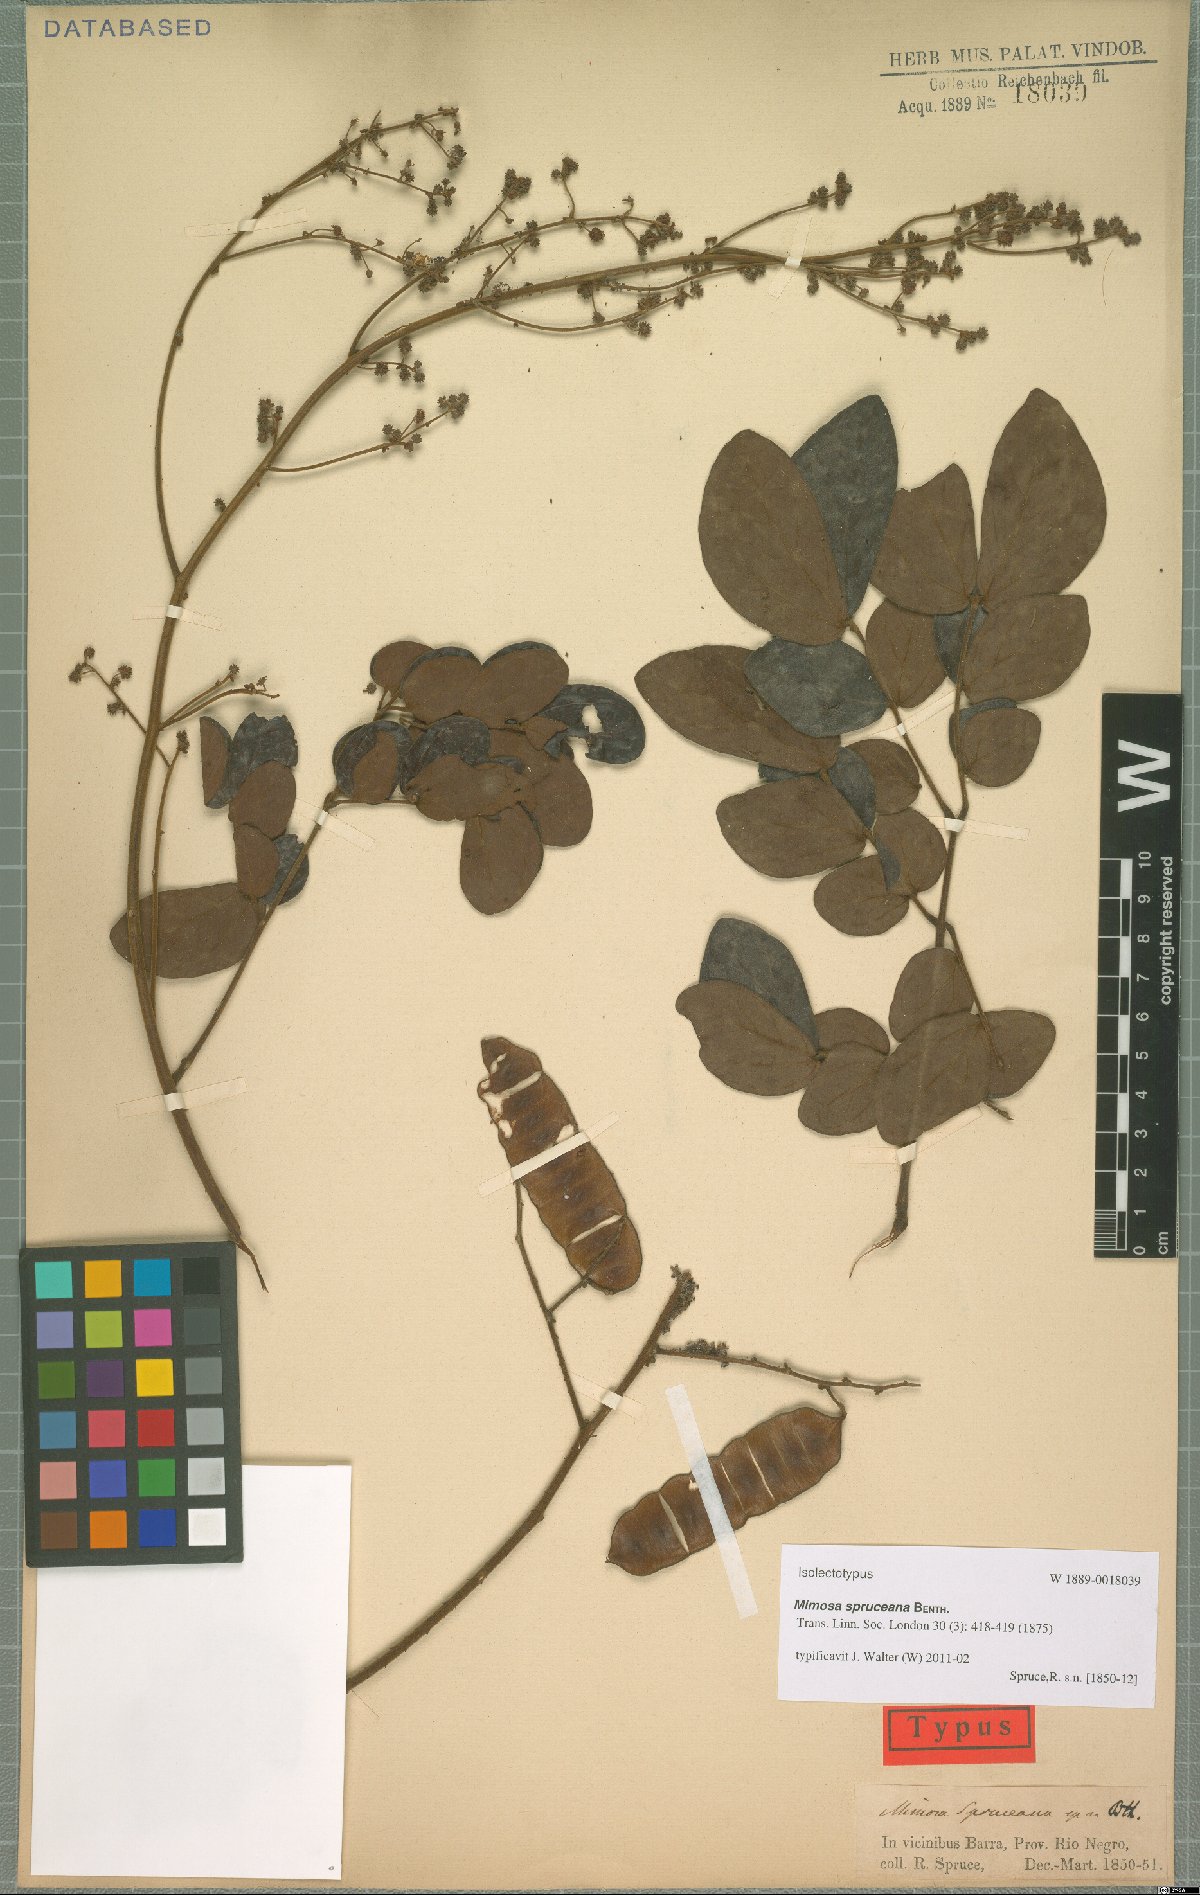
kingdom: Plantae
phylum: Tracheophyta
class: Magnoliopsida
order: Fabales
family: Fabaceae
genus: Mimosa
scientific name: Mimosa guilandinae
